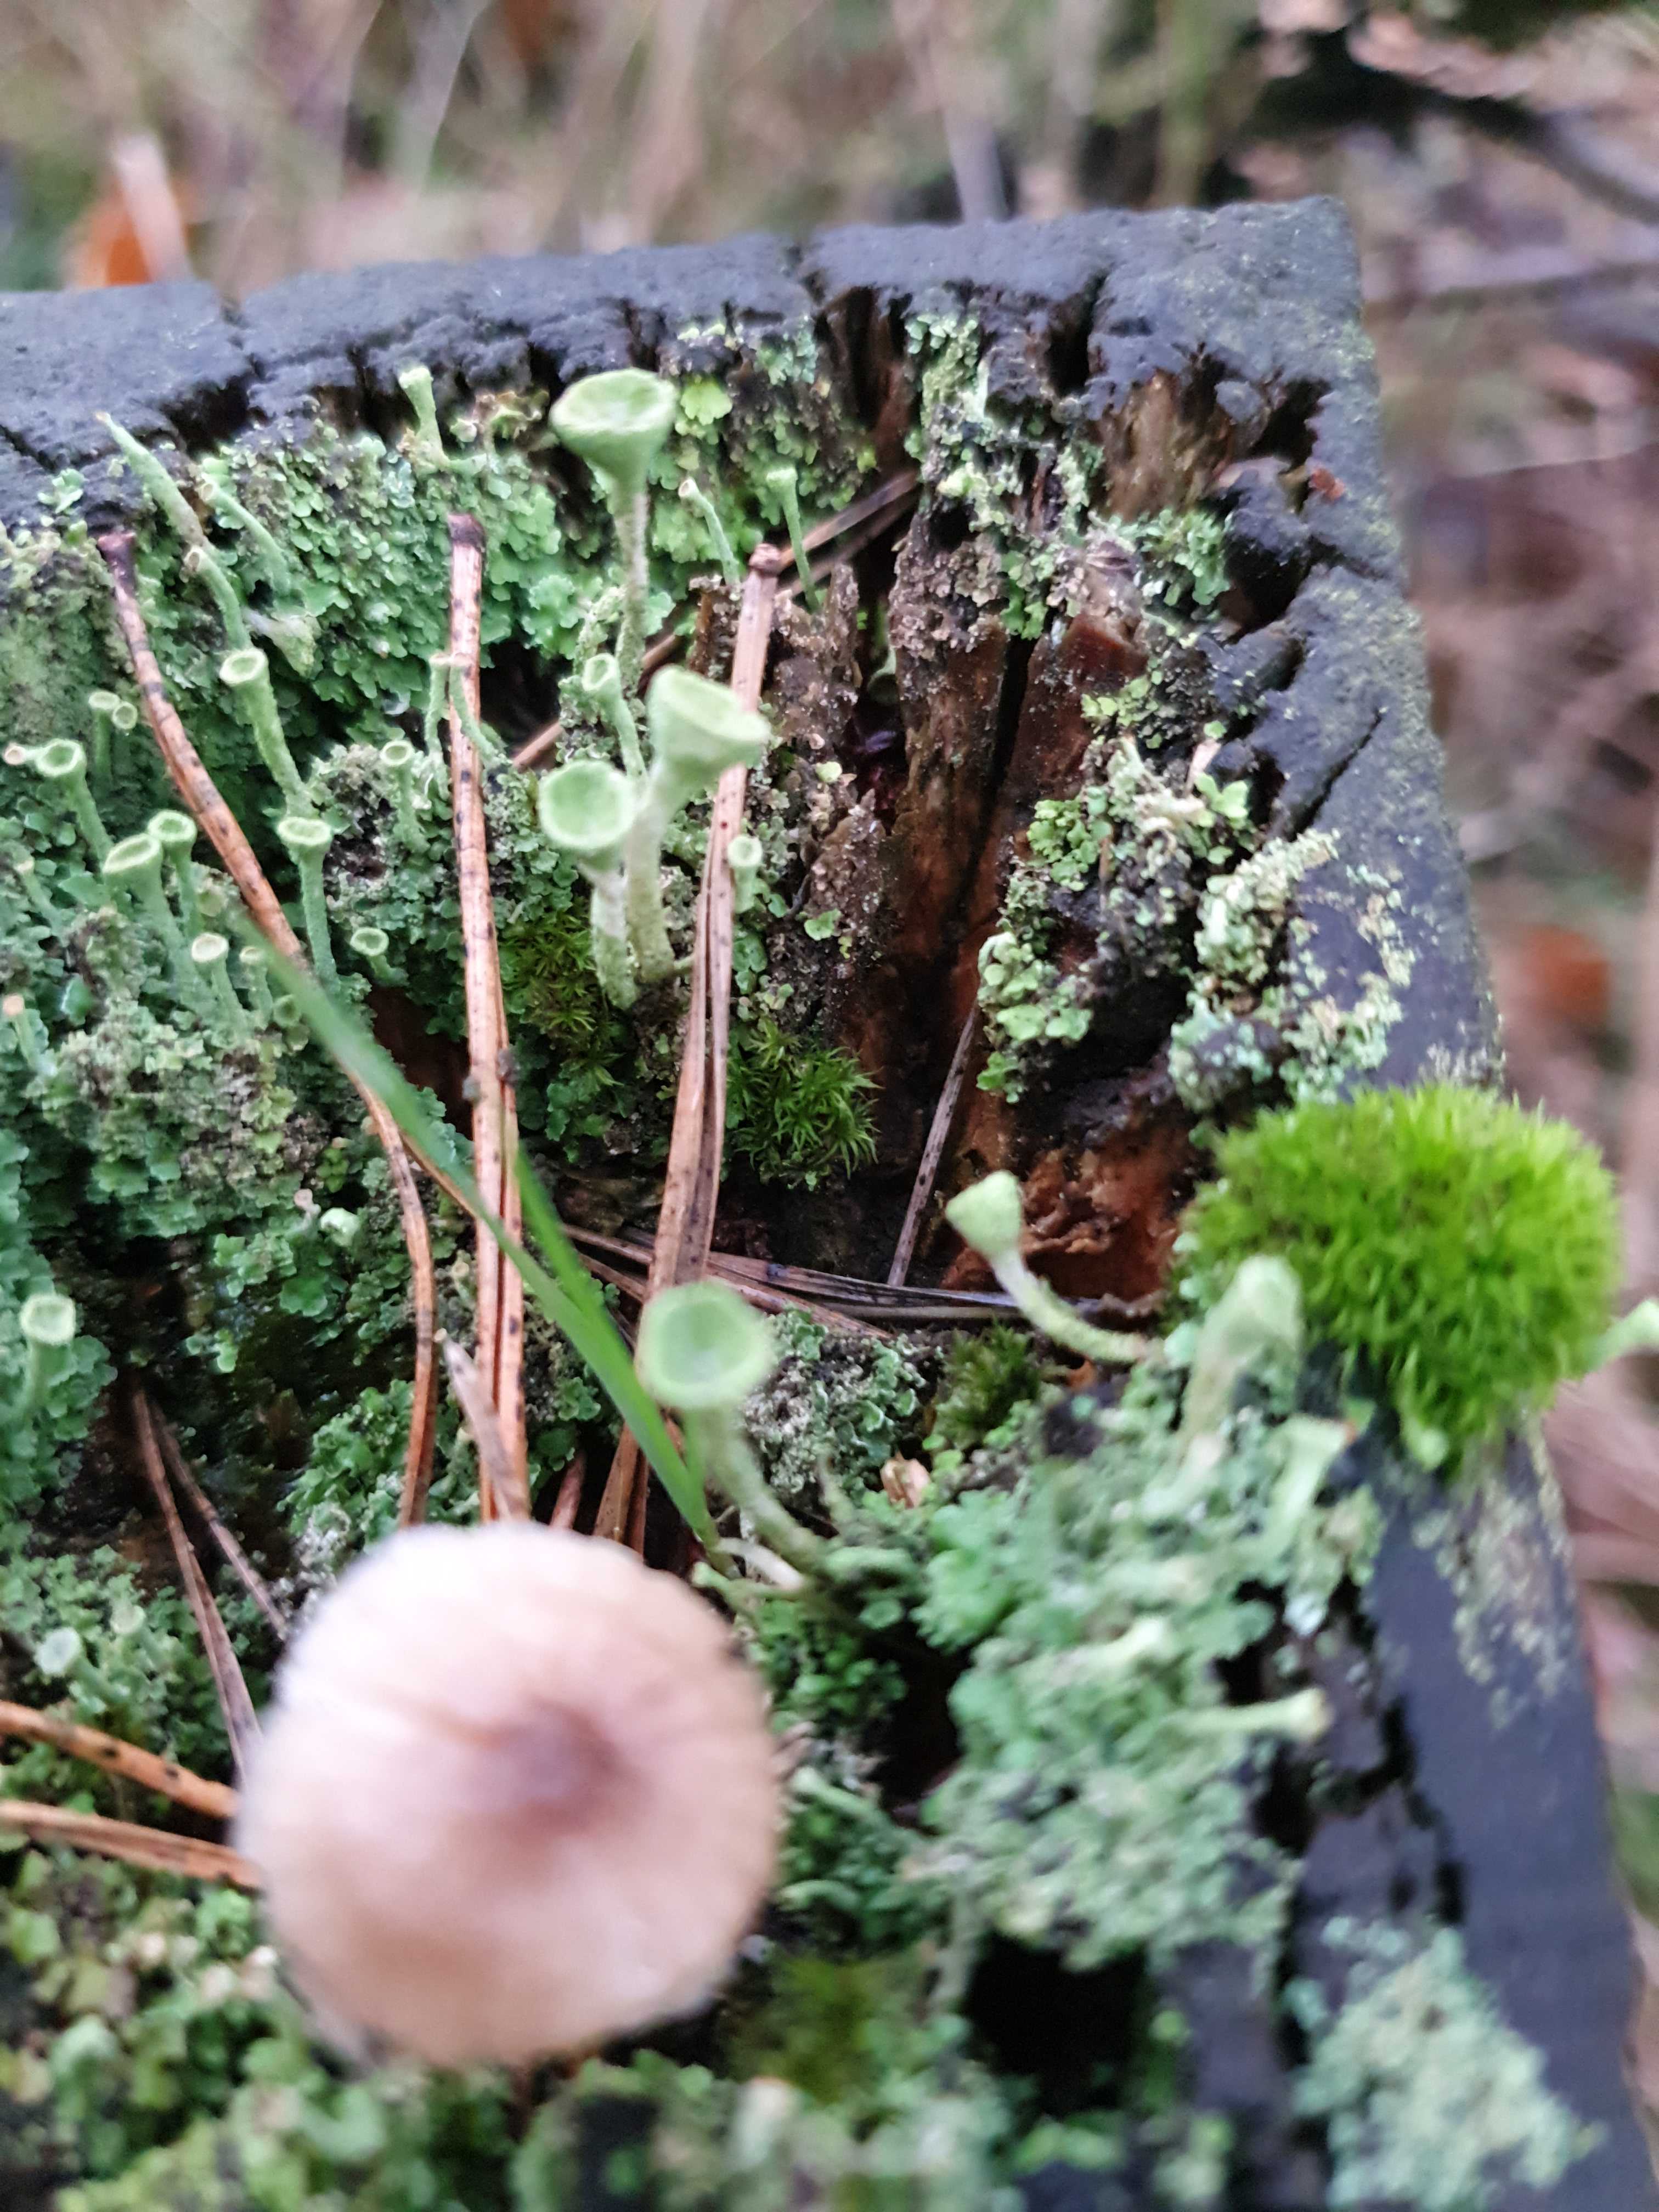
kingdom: Fungi
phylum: Basidiomycota
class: Agaricomycetes
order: Agaricales
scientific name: Agaricales
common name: champignonordenen
